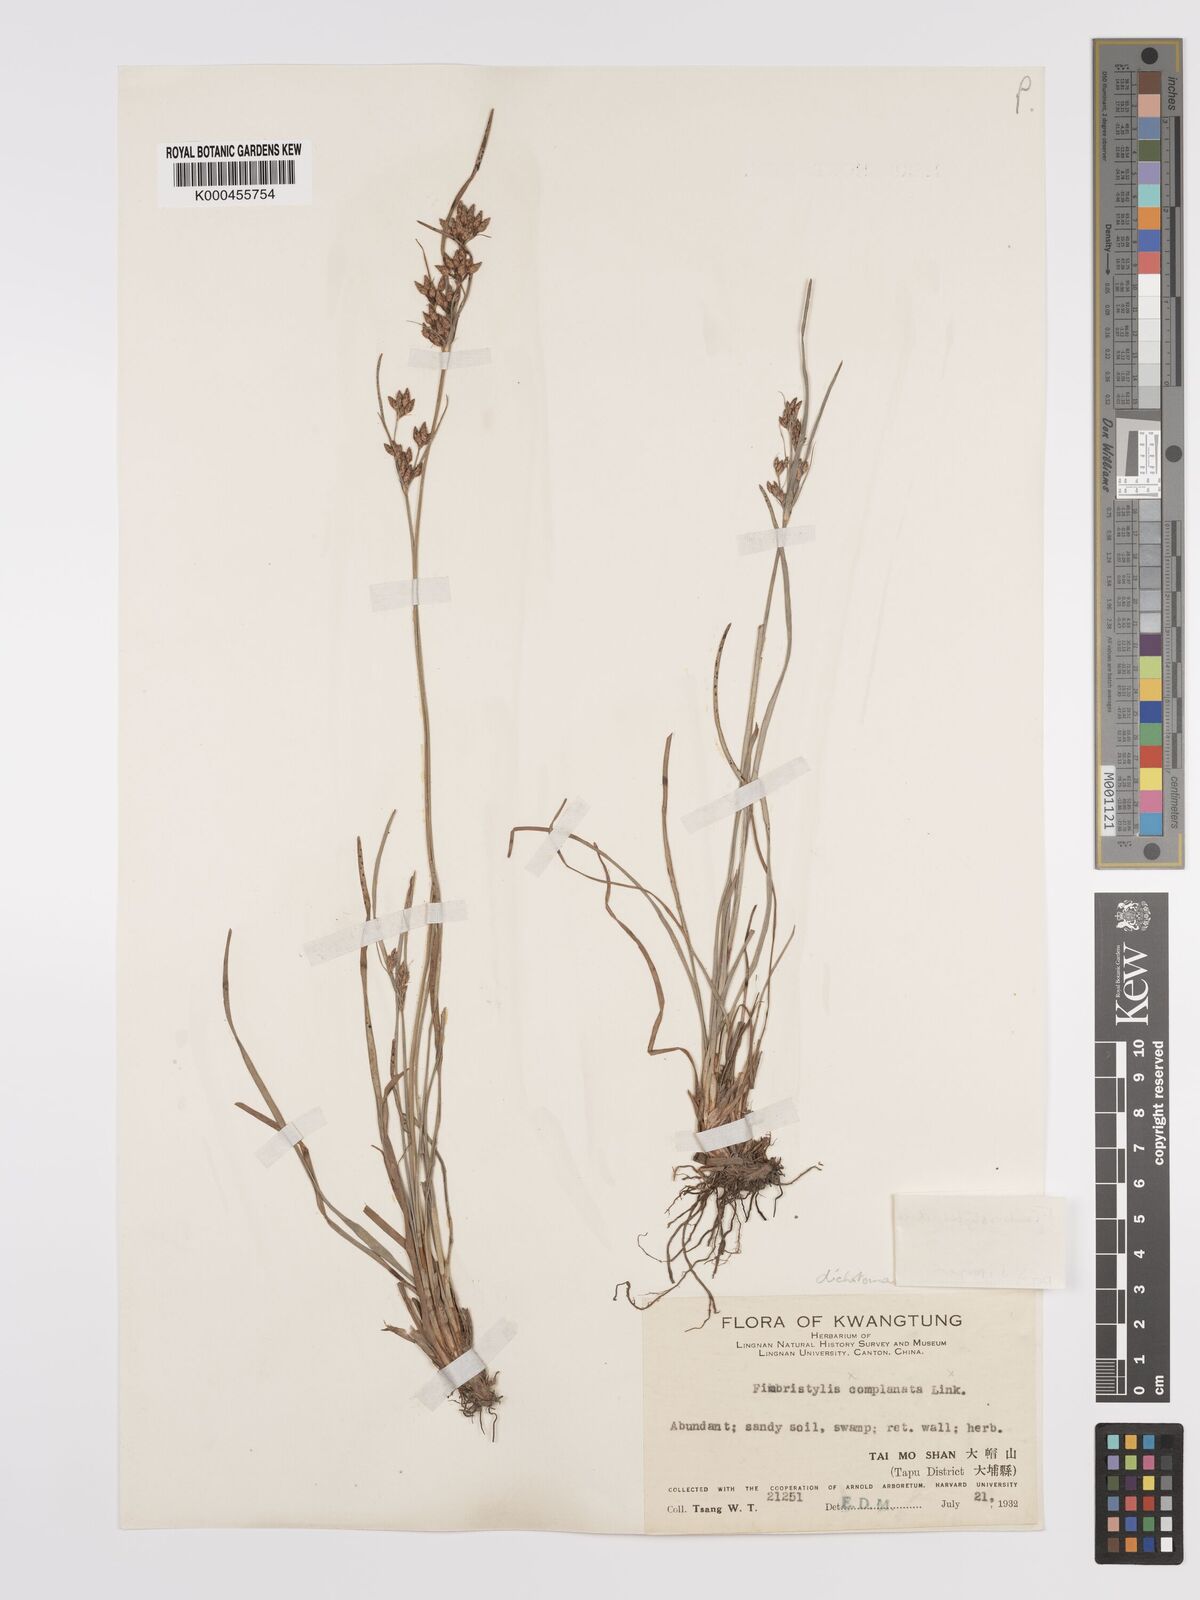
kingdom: Plantae
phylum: Tracheophyta
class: Liliopsida
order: Poales
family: Cyperaceae
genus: Fimbristylis
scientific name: Fimbristylis dichotoma
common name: Forked fimbry
